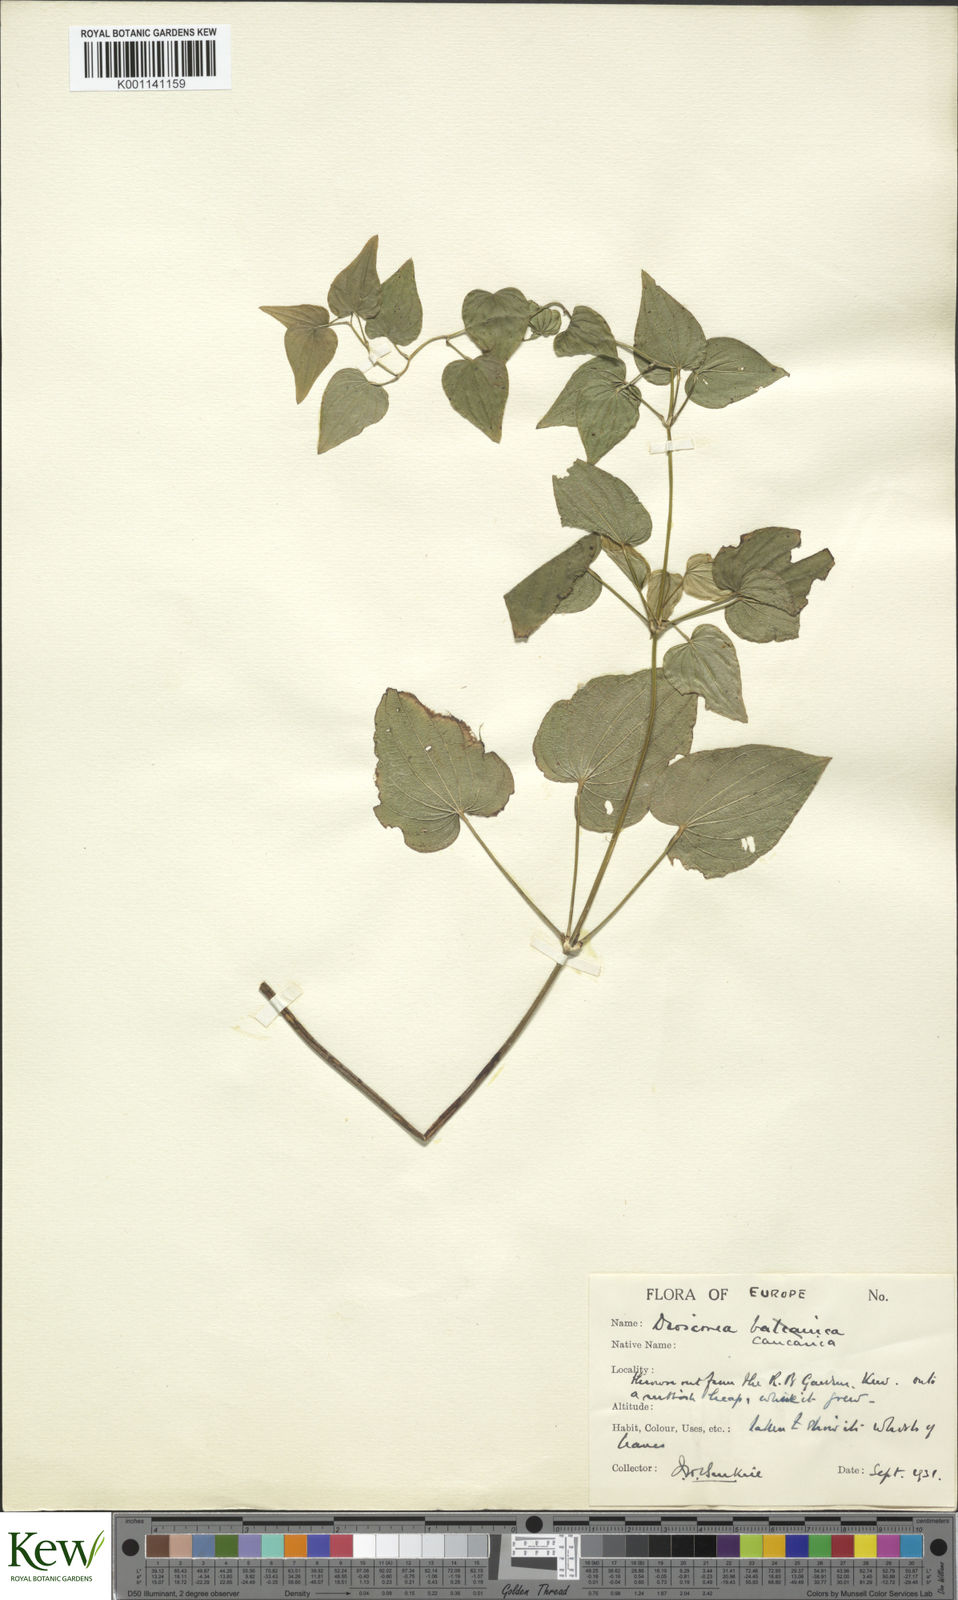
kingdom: Plantae
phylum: Tracheophyta
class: Liliopsida
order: Dioscoreales
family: Dioscoreaceae
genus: Dioscorea
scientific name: Dioscorea caucasica
